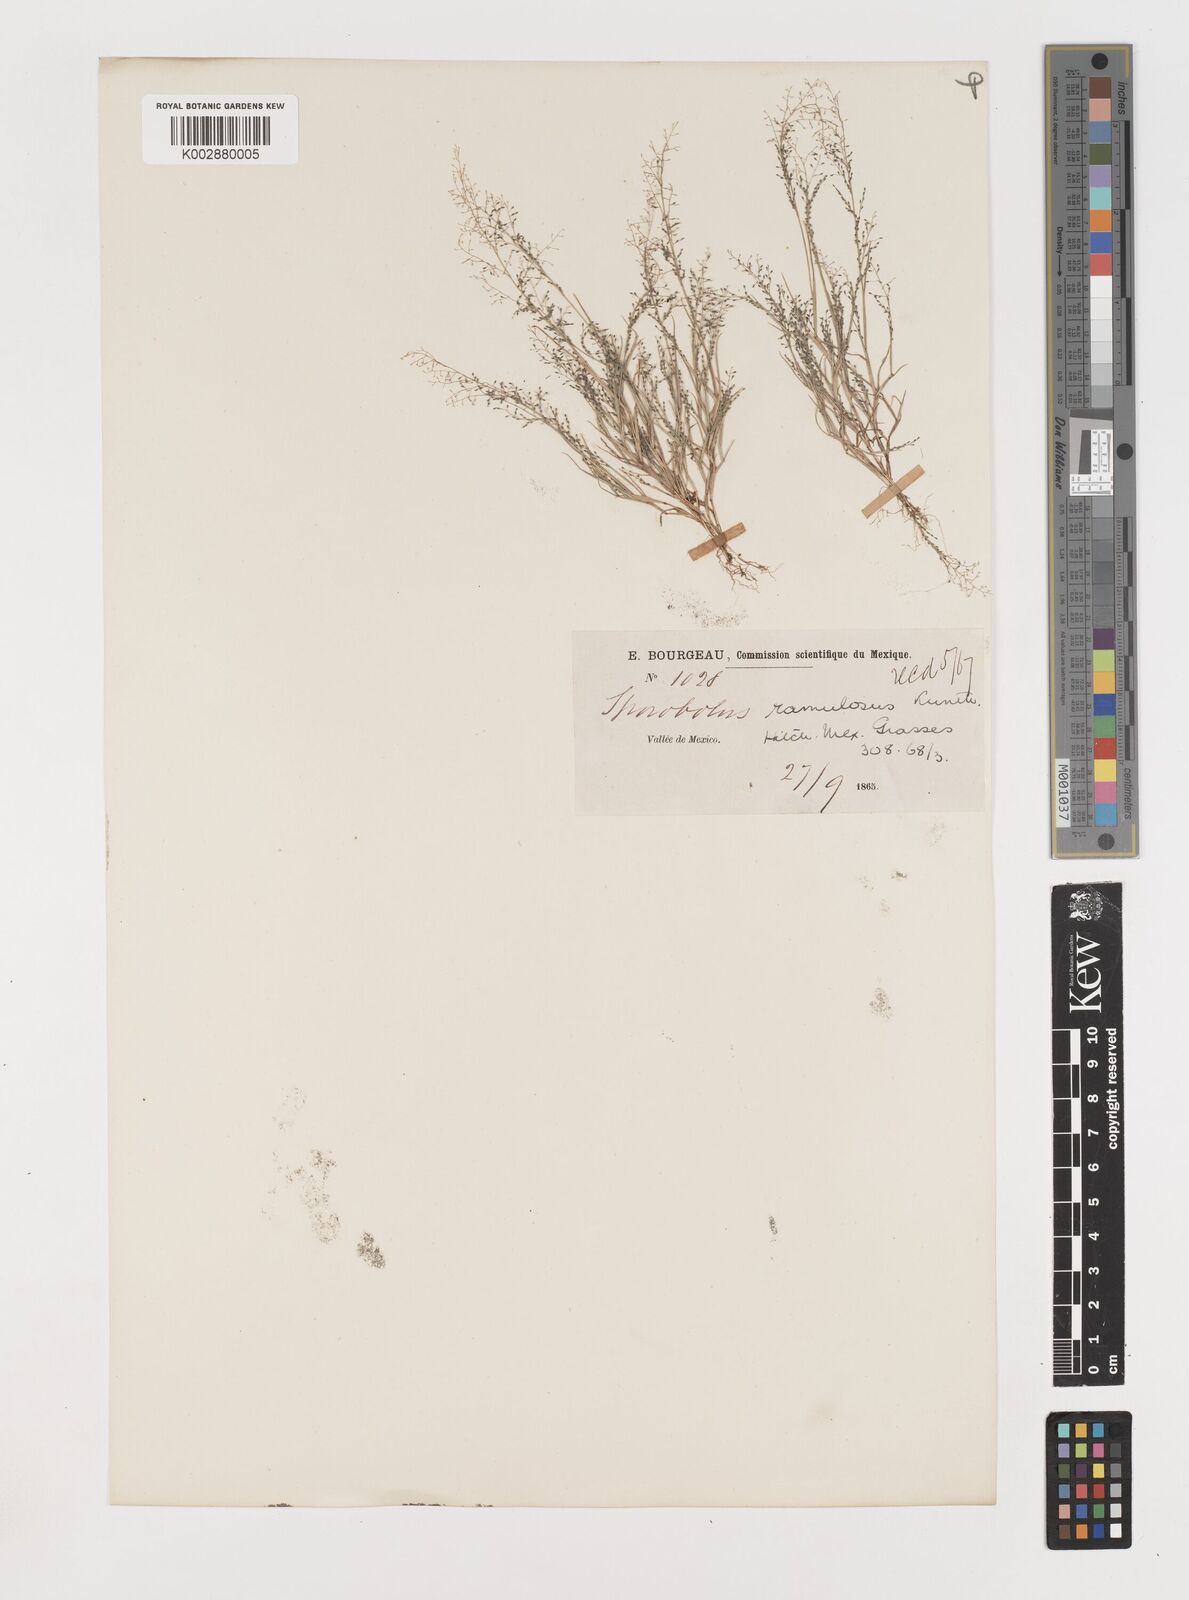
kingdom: Plantae
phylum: Tracheophyta
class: Liliopsida
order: Poales
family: Poaceae
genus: Muhlenbergia
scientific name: Muhlenbergia ramulosa
